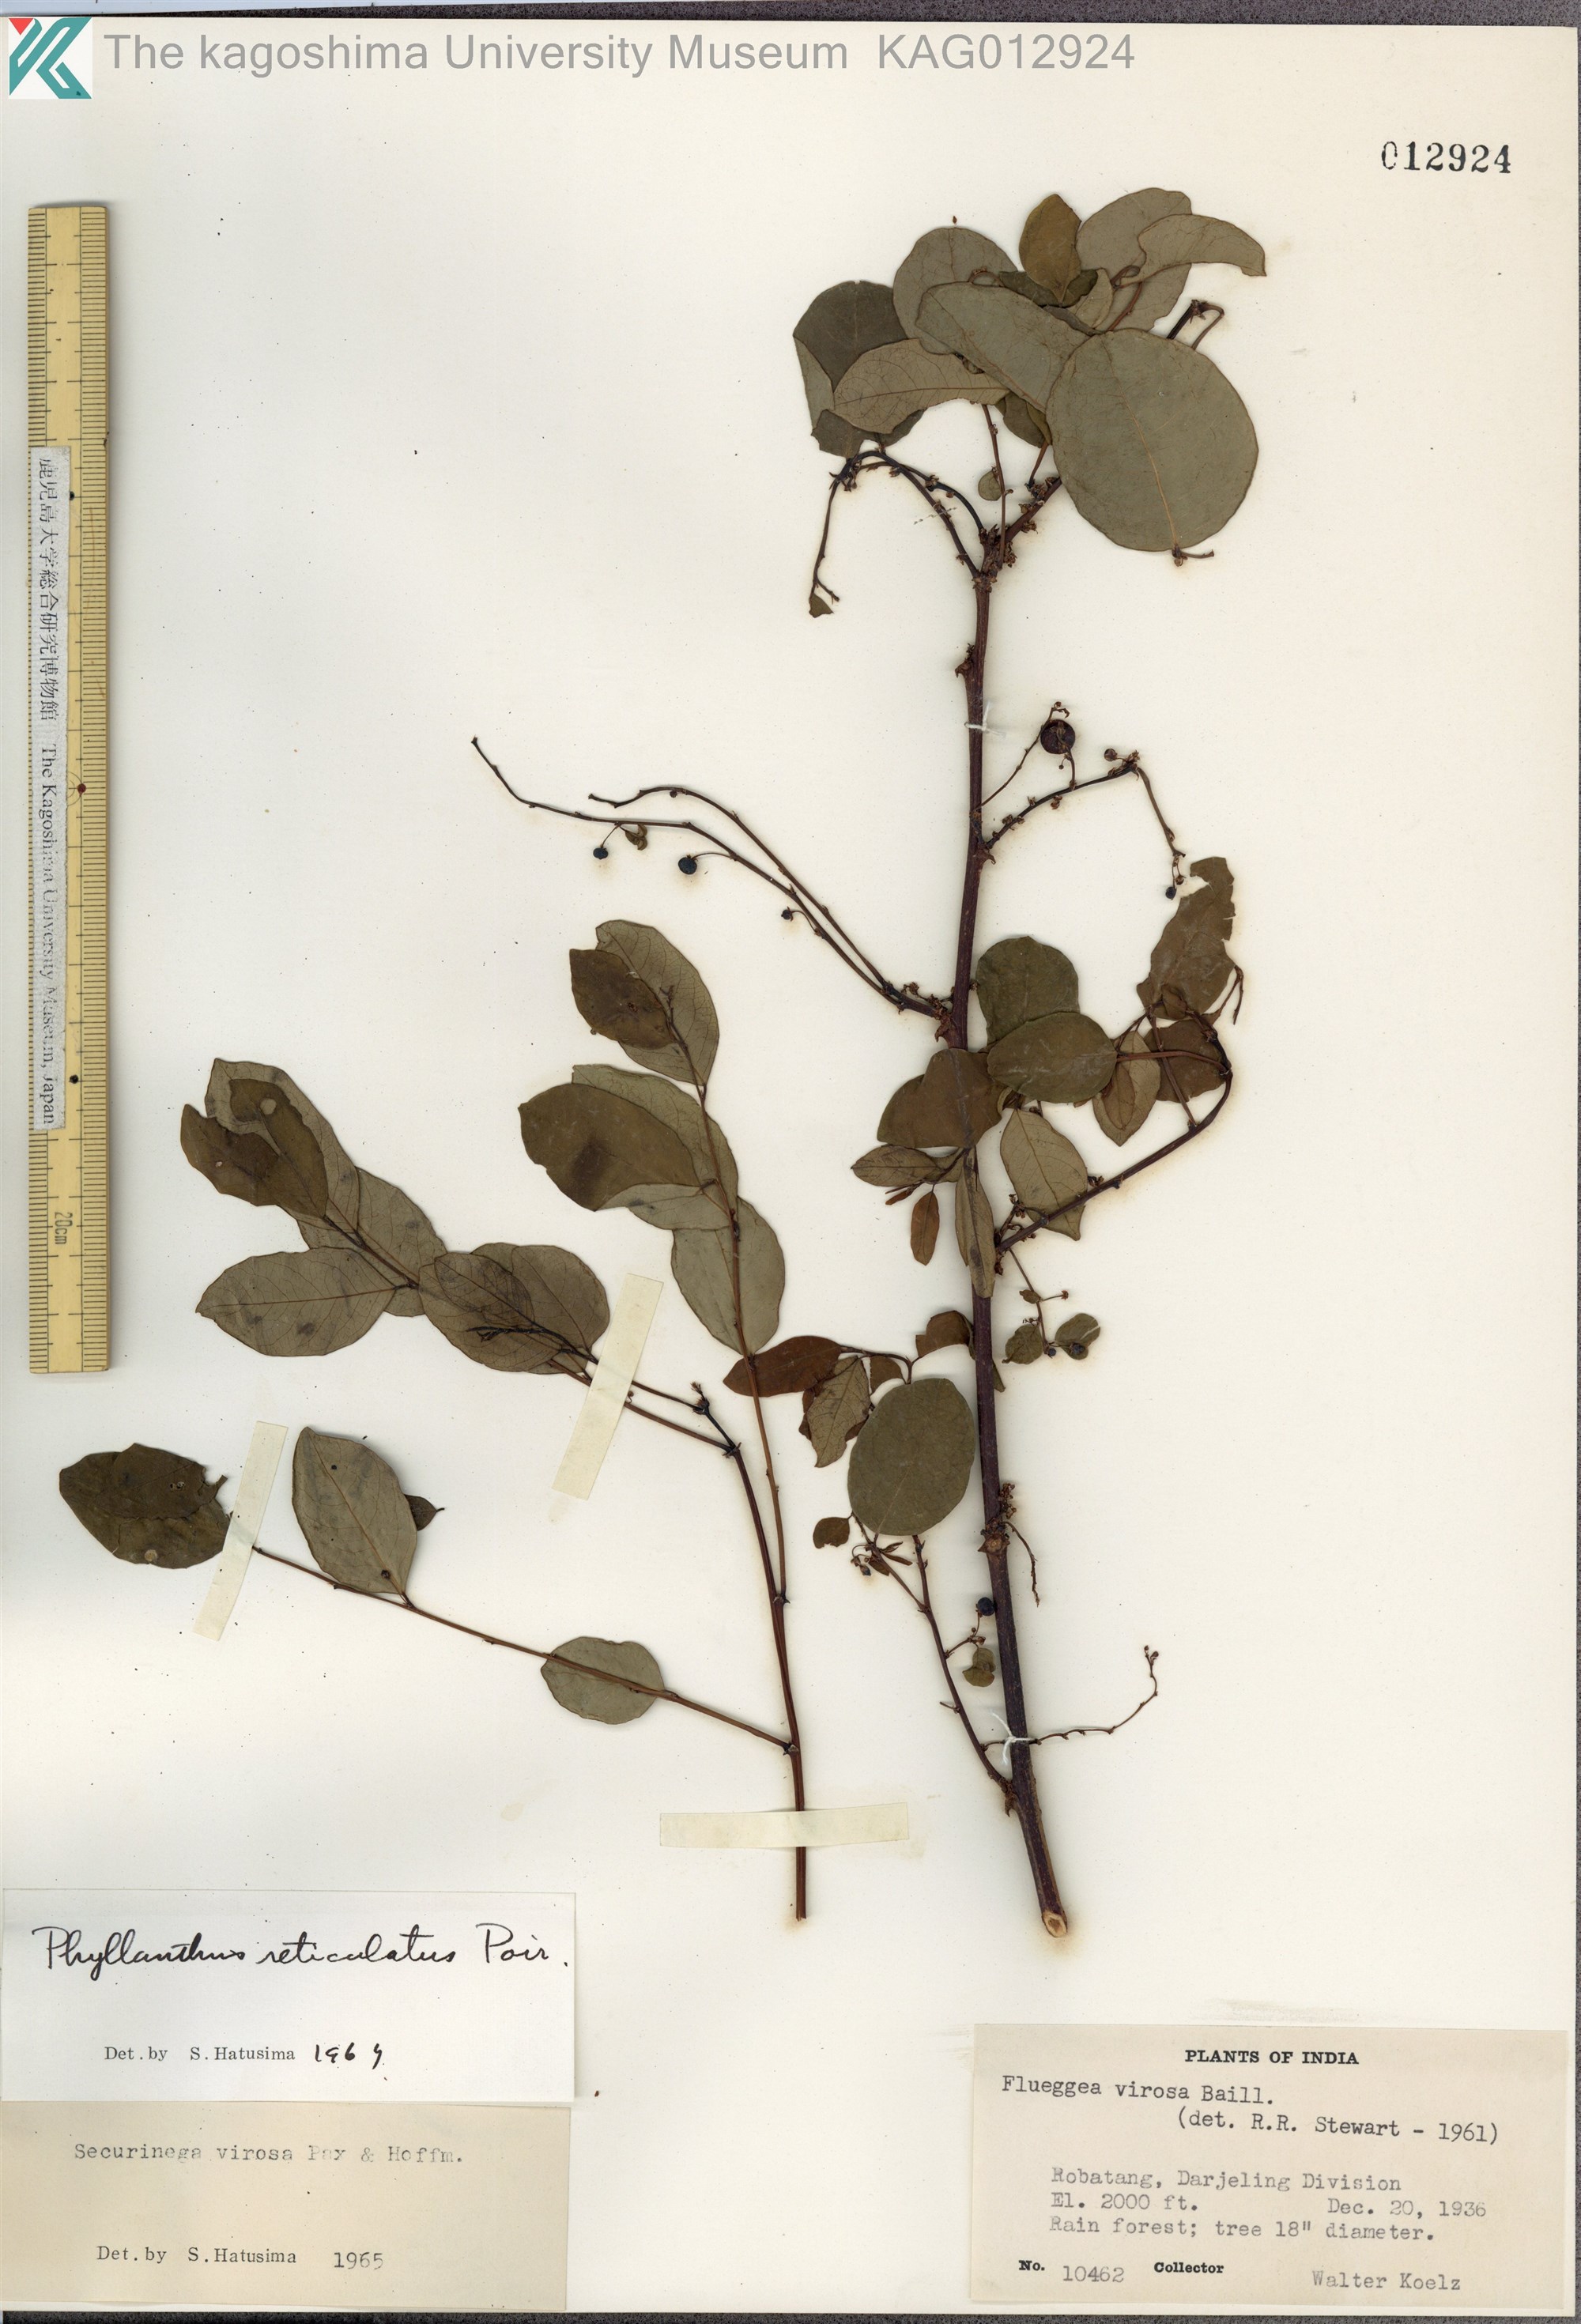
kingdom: Plantae
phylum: Tracheophyta
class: Magnoliopsida
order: Malpighiales
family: Phyllanthaceae
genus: Phyllanthus
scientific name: Phyllanthus reticulatus
